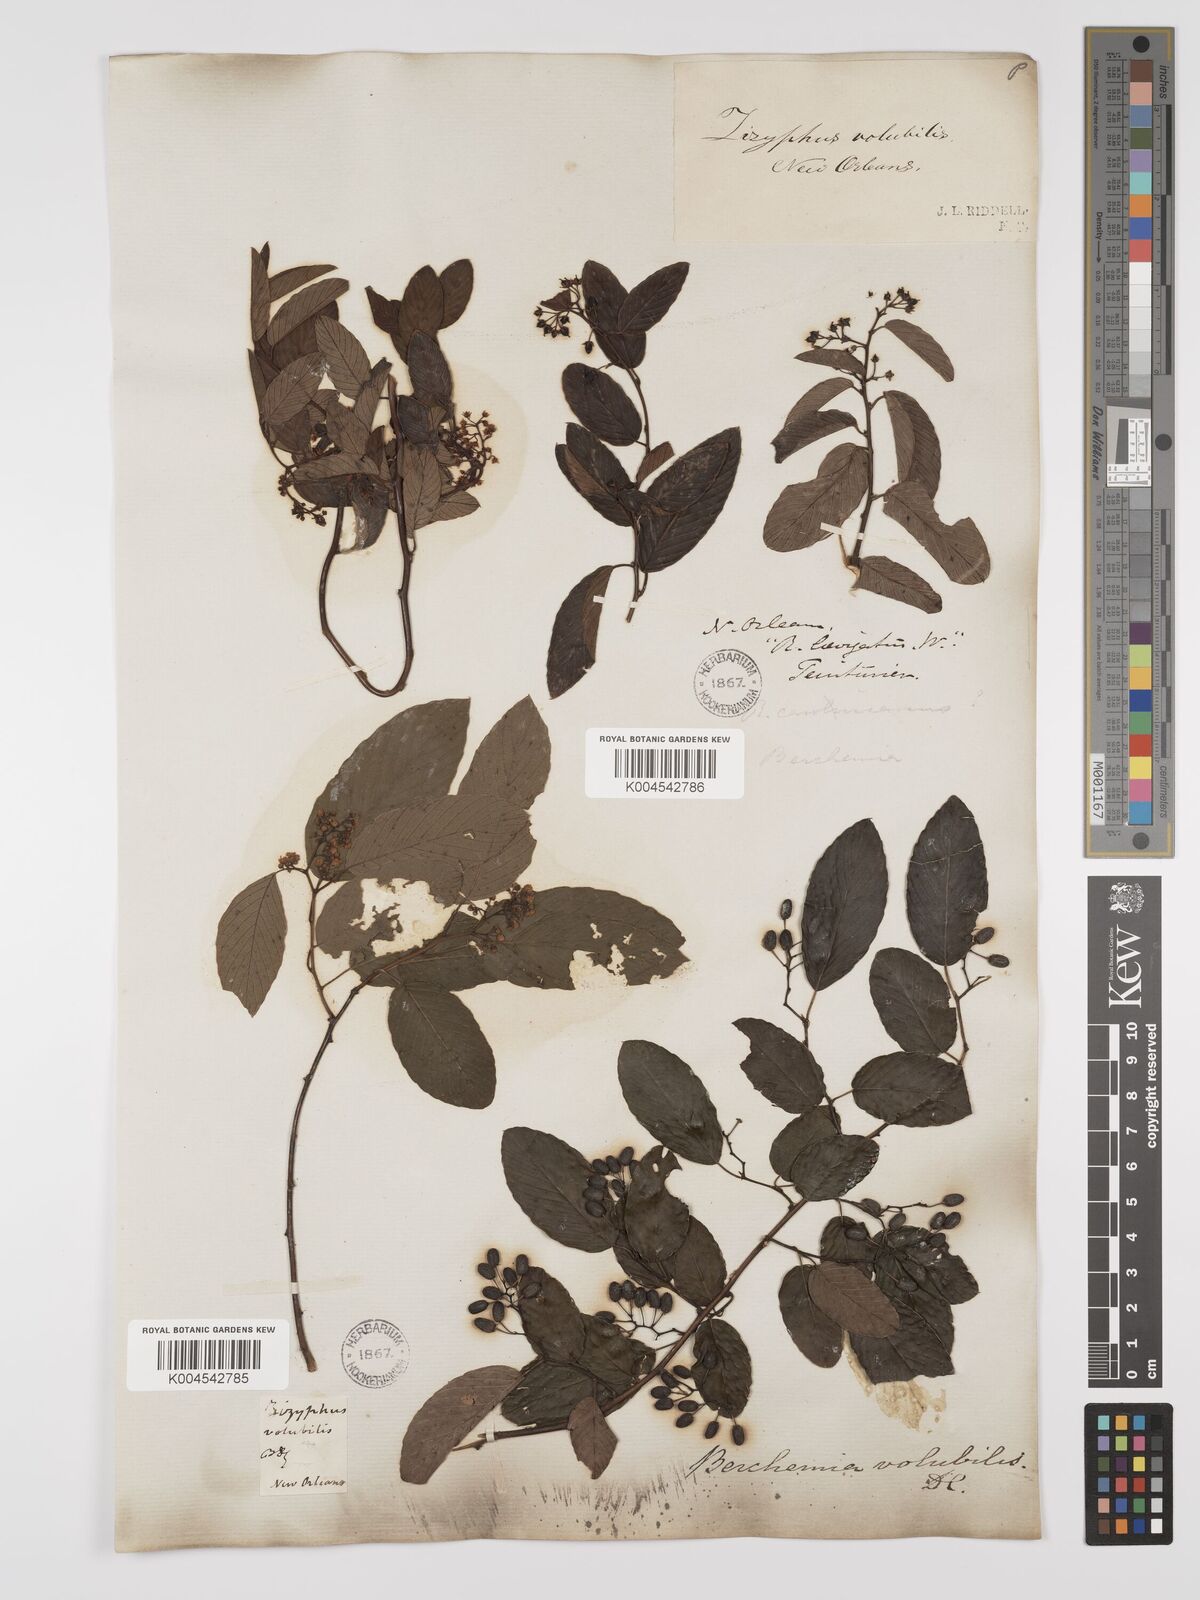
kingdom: Plantae
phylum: Tracheophyta
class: Magnoliopsida
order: Rosales
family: Rhamnaceae
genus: Berchemia
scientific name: Berchemia scandens
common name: Supplejack
